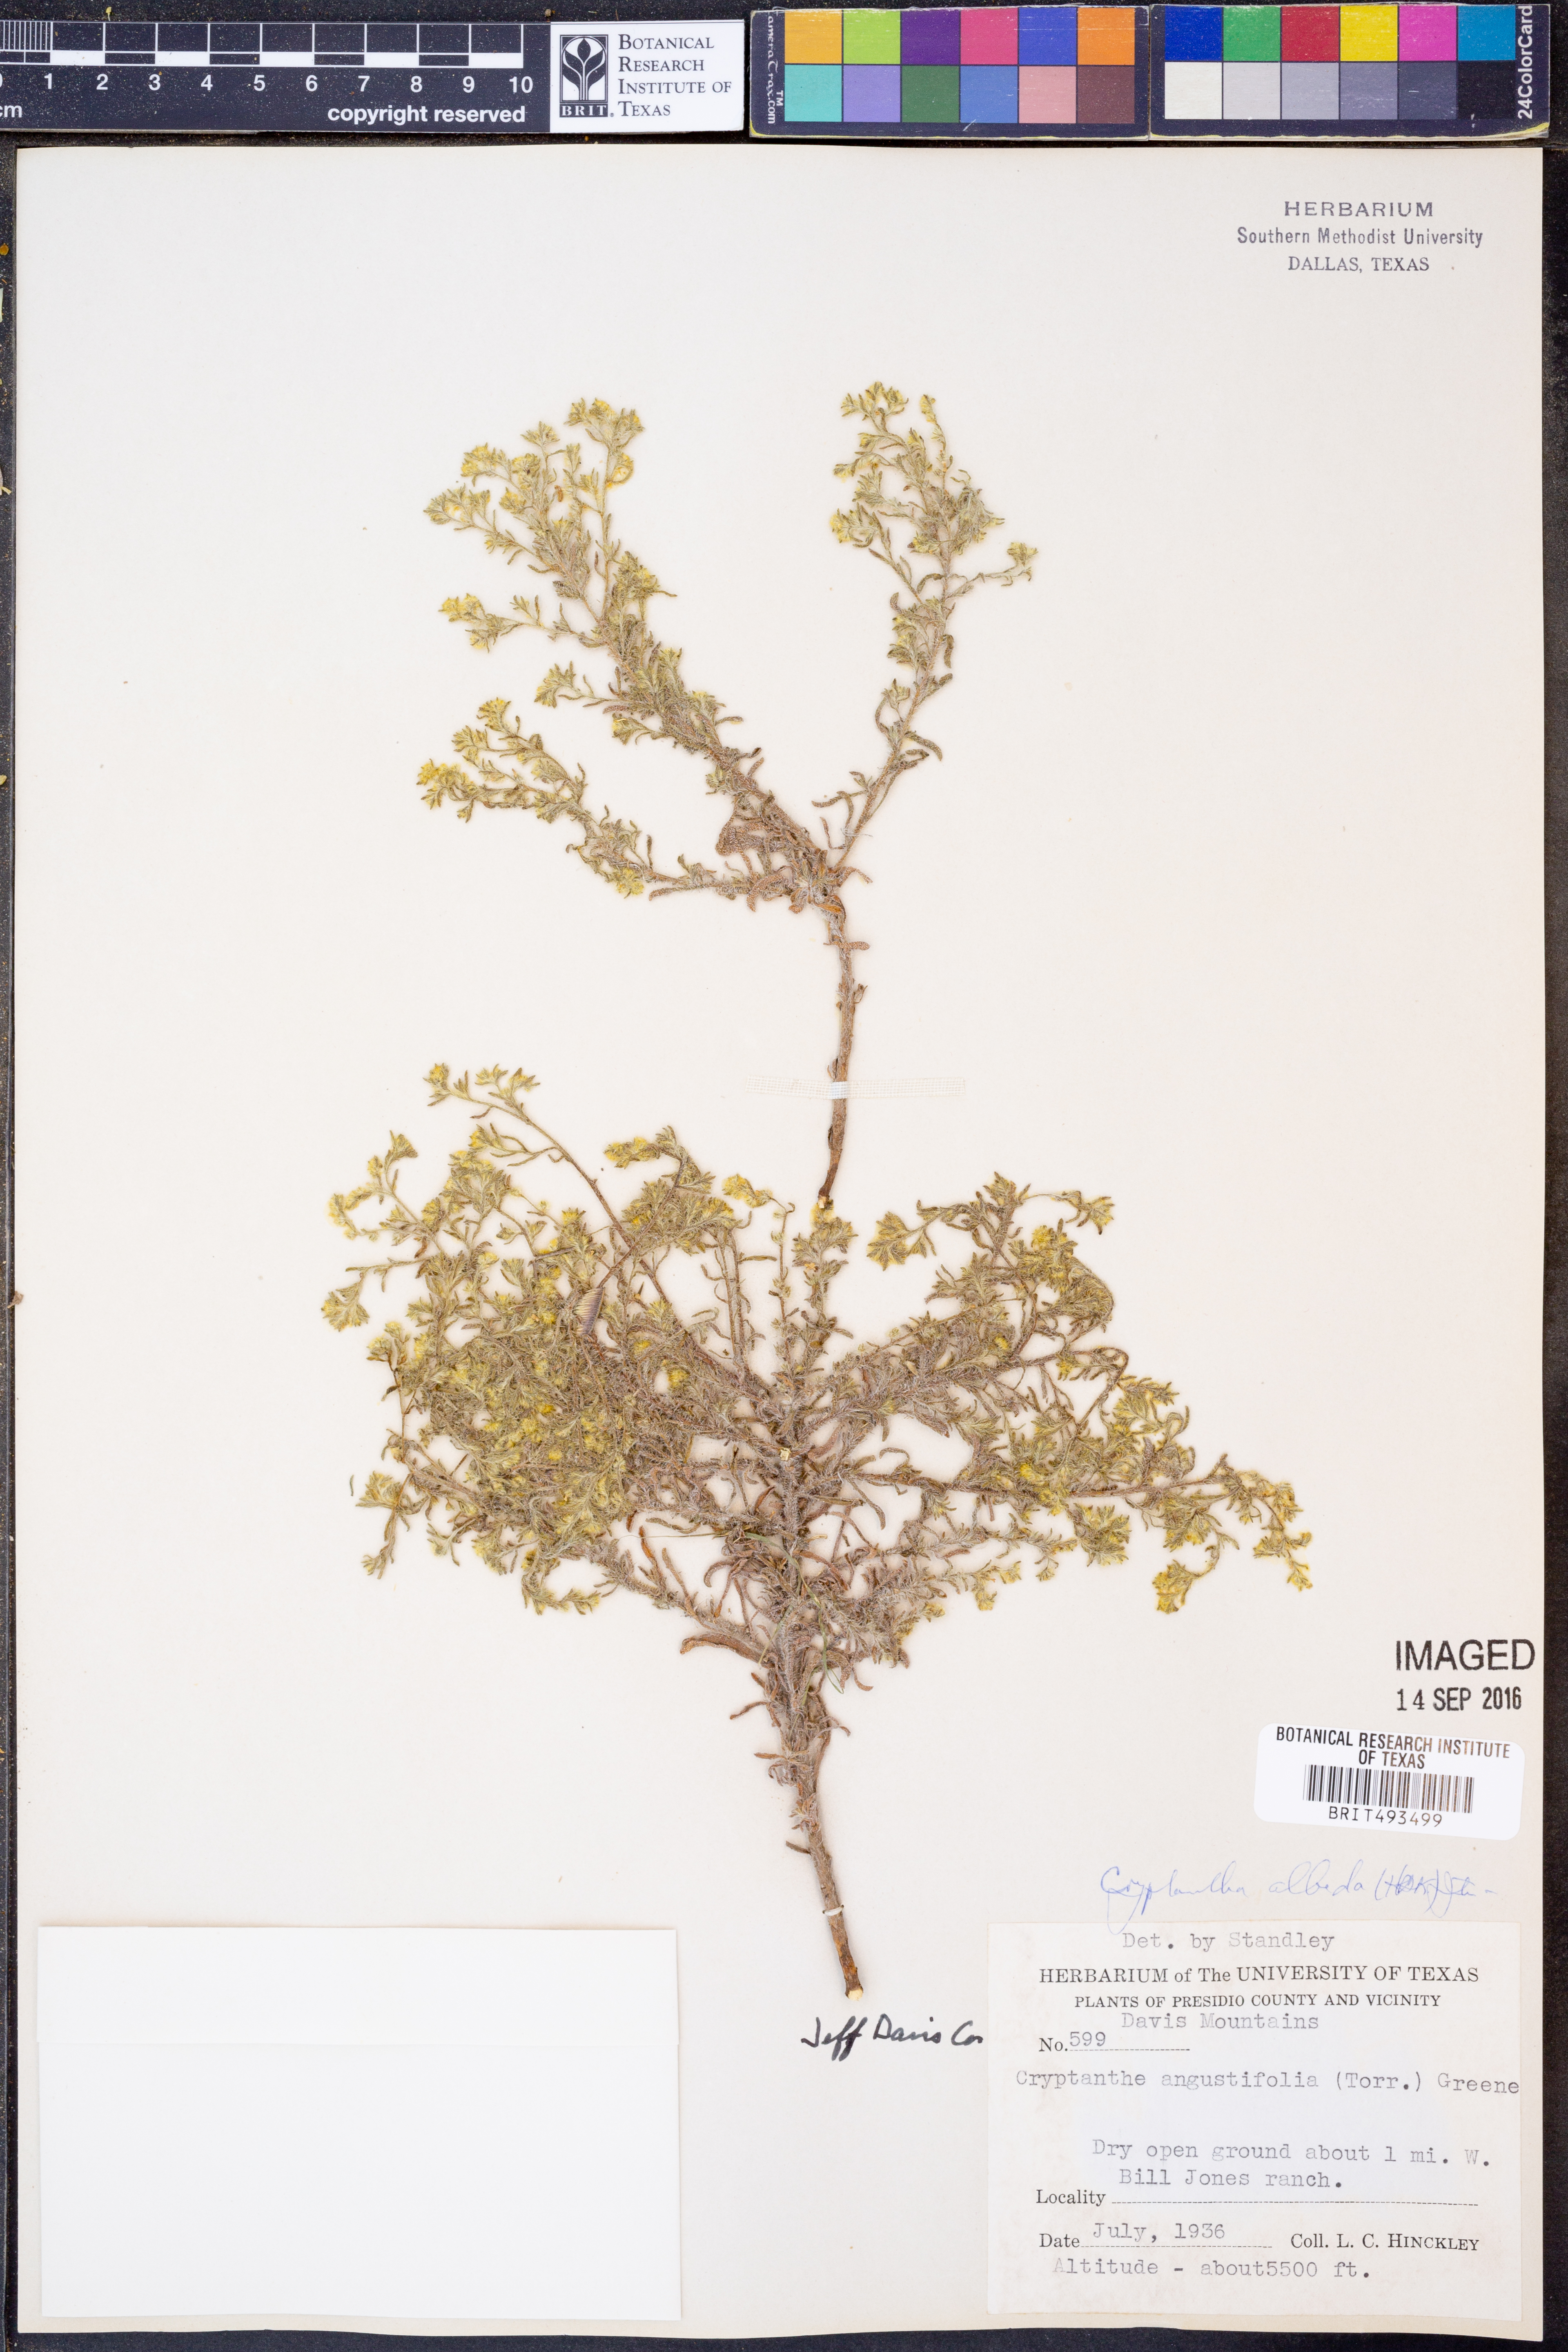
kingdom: Plantae
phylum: Tracheophyta
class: Magnoliopsida
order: Boraginales
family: Boraginaceae
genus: Johnstonella
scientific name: Johnstonella albida
